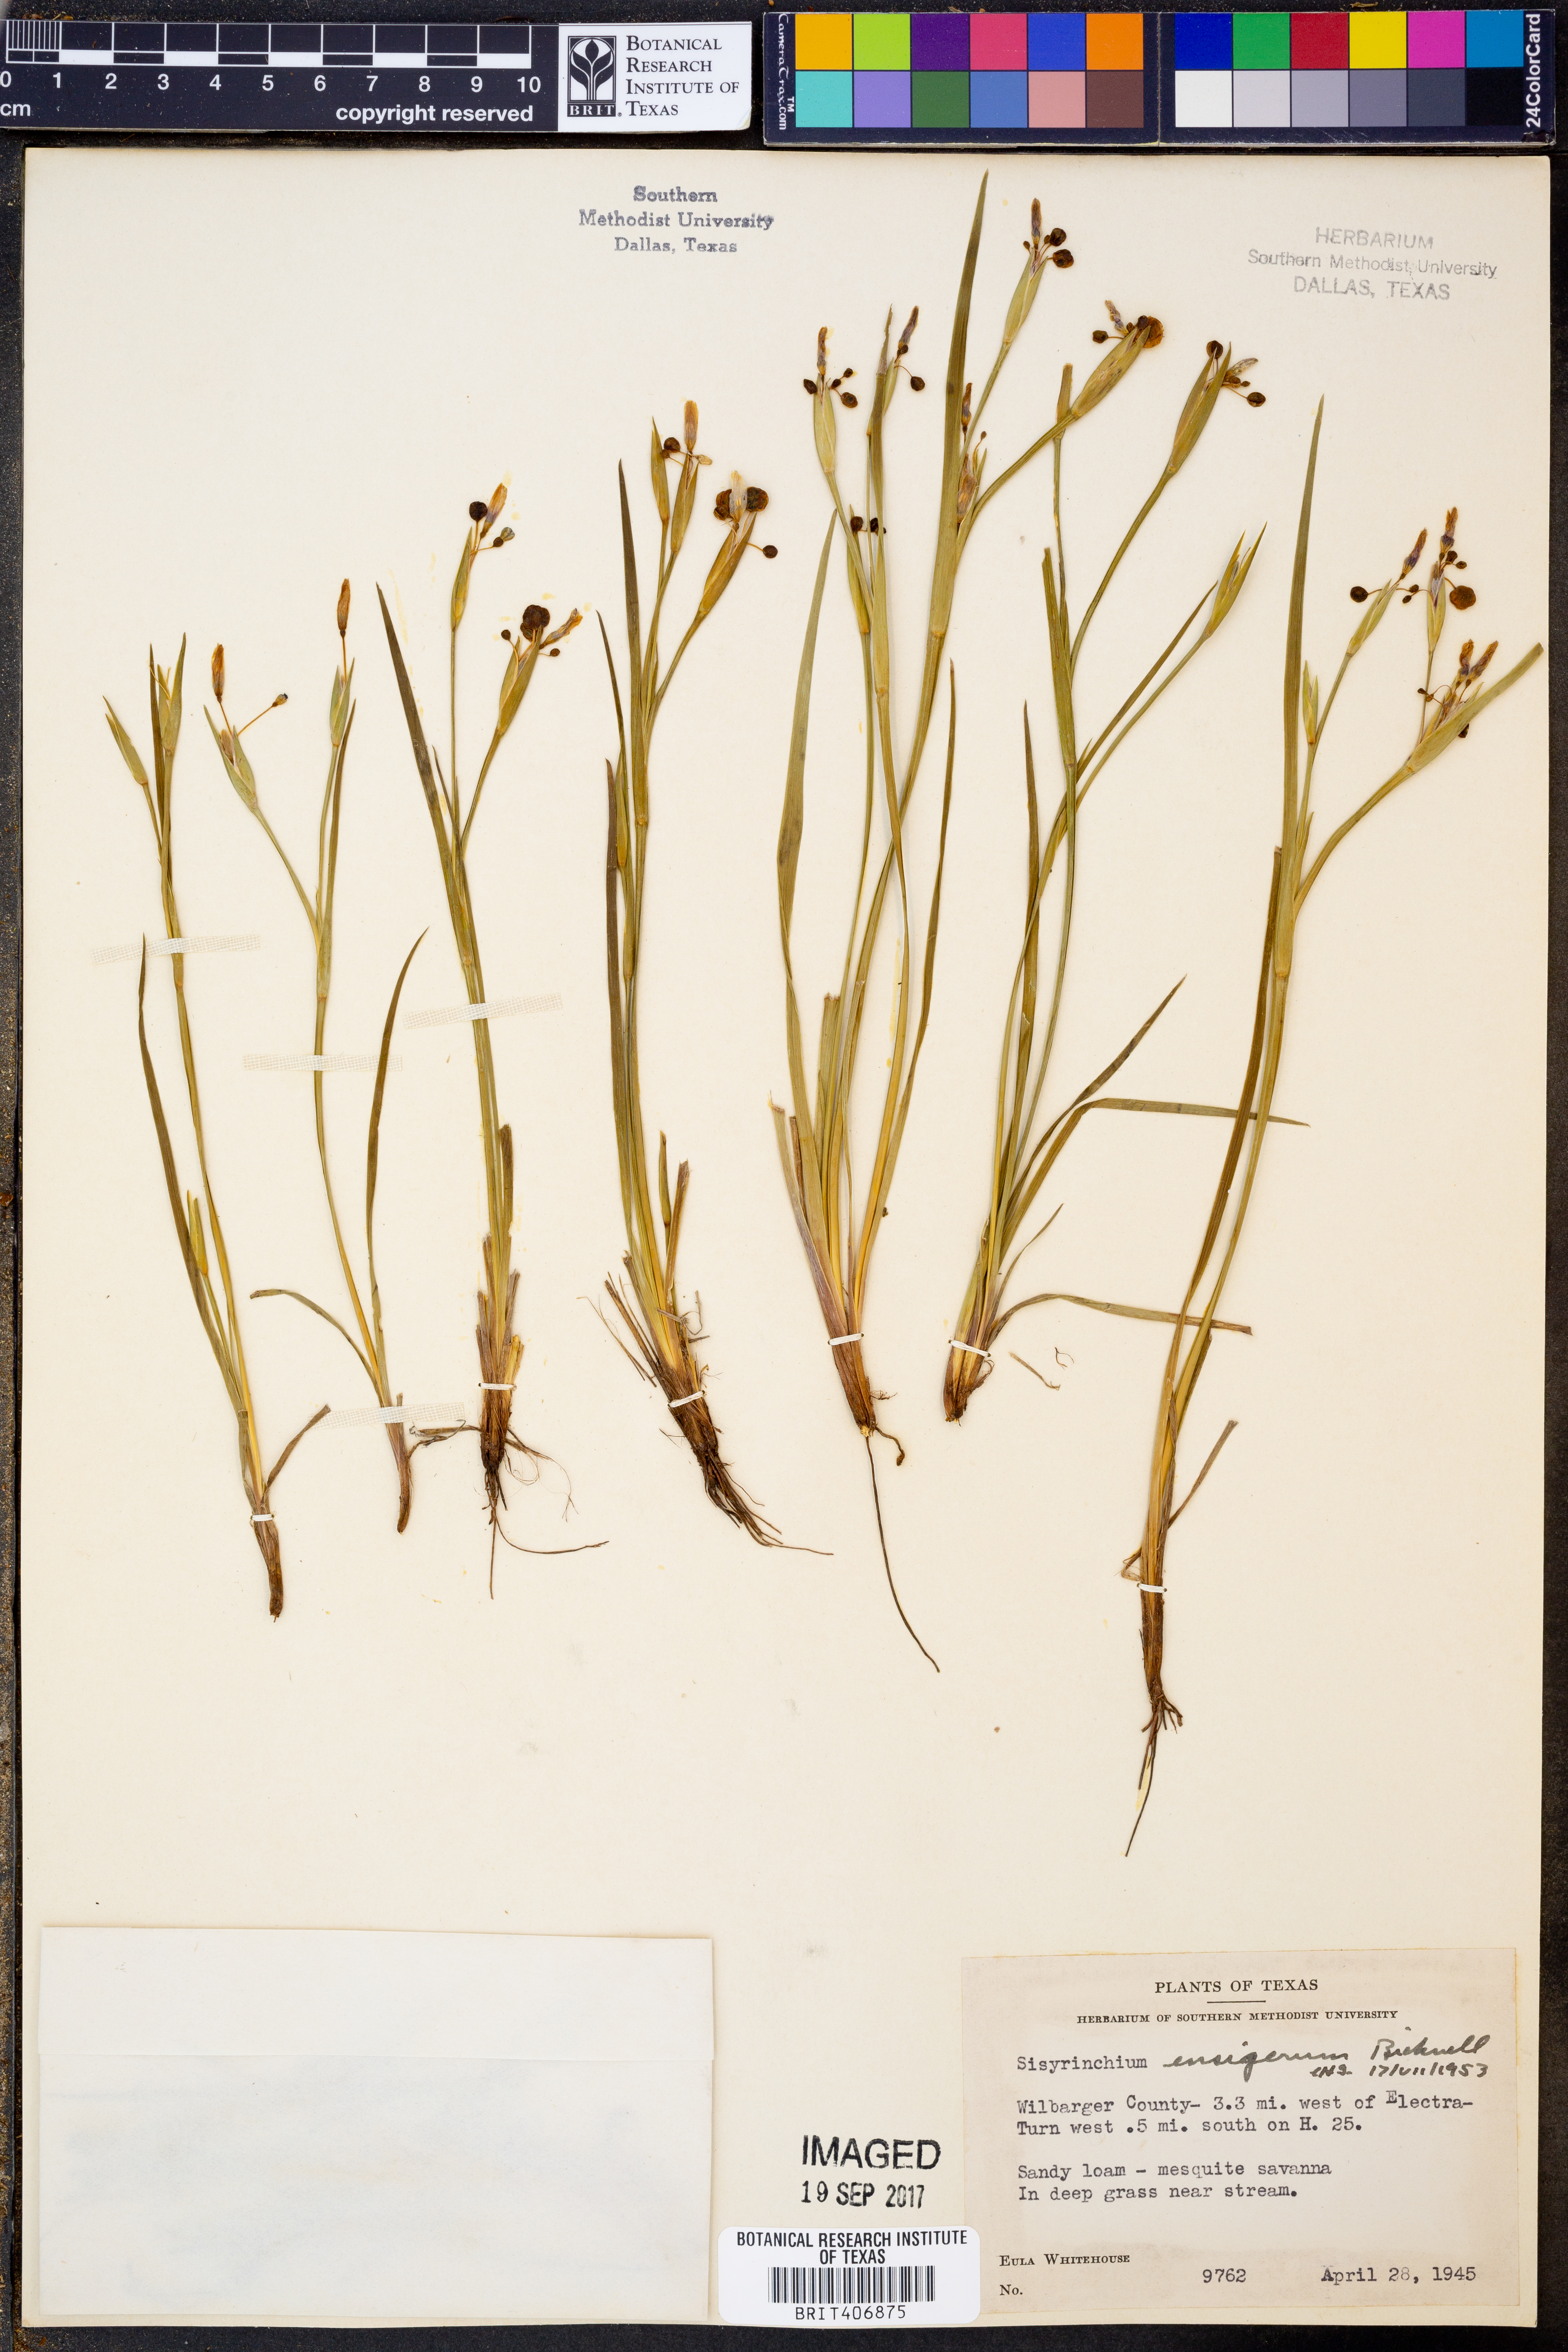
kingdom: Plantae
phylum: Tracheophyta
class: Liliopsida
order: Asparagales
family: Iridaceae
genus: Sisyrinchium
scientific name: Sisyrinchium ensigerum
